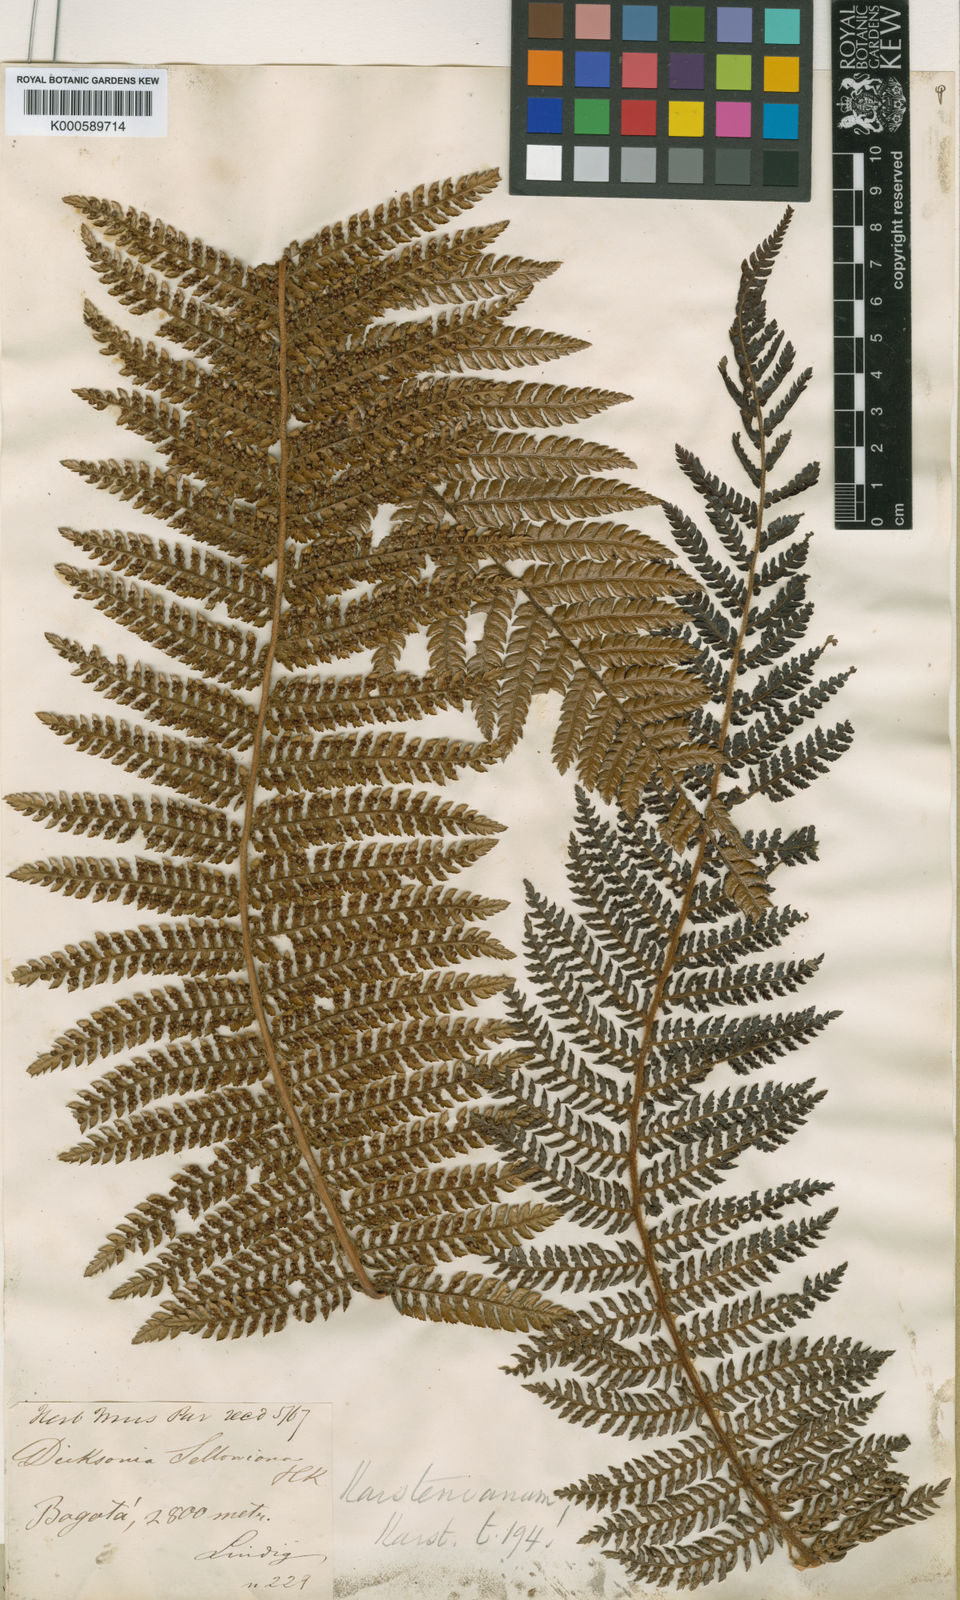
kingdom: Plantae
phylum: Tracheophyta
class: Polypodiopsida
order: Cyatheales
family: Dicksoniaceae
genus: Dicksonia
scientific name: Dicksonia karsteniana
